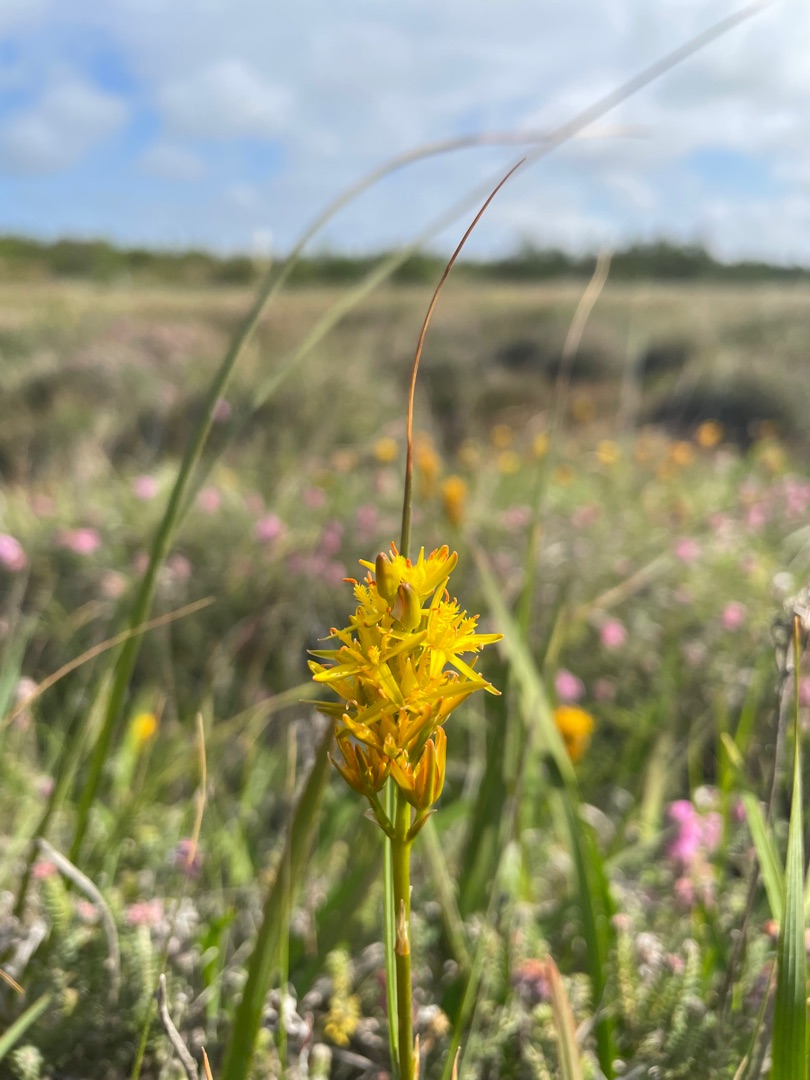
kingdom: Plantae
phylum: Tracheophyta
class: Liliopsida
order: Dioscoreales
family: Nartheciaceae
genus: Narthecium
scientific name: Narthecium ossifragum
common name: Benbræk
